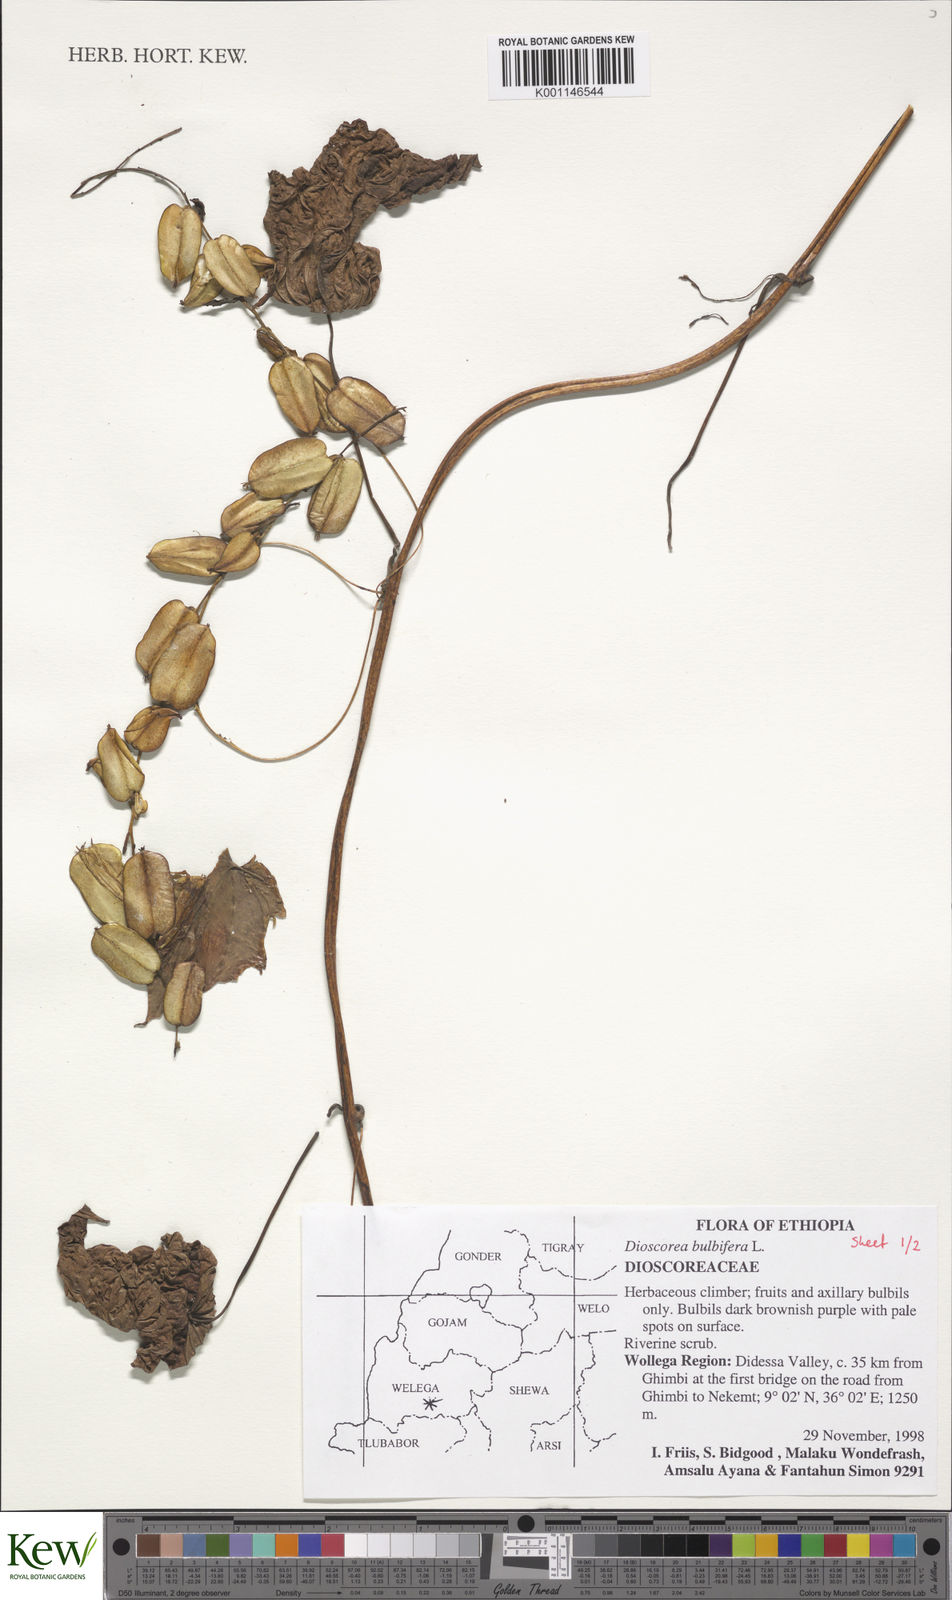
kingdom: Plantae
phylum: Tracheophyta
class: Liliopsida
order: Dioscoreales
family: Dioscoreaceae
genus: Dioscorea
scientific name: Dioscorea bulbifera
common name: Air yam
